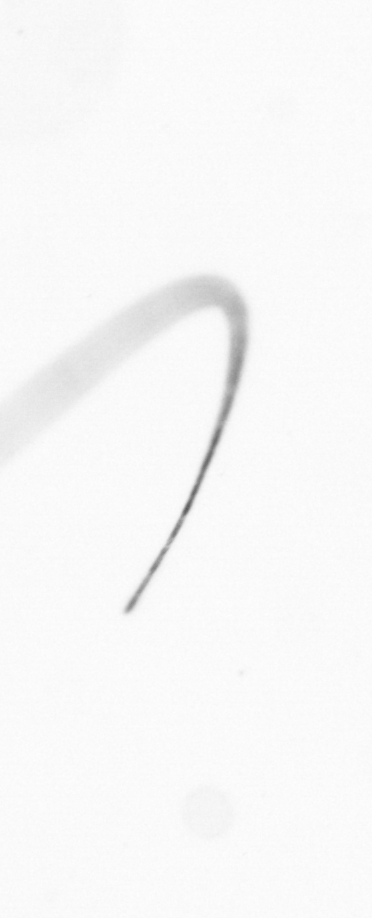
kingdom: Chromista
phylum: Ochrophyta
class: Bacillariophyceae
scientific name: Bacillariophyceae
